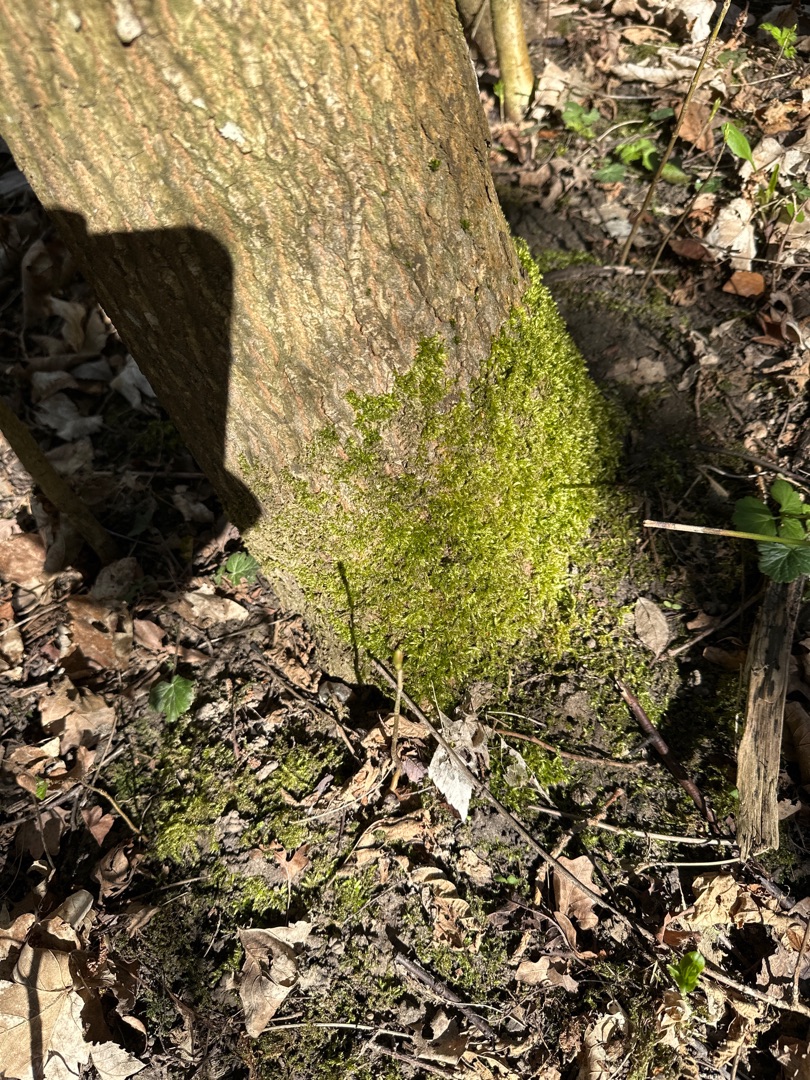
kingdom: Animalia
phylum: Chordata
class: Mammalia
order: Artiodactyla
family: Cervidae
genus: Capreolus
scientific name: Capreolus capreolus
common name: Rådyr
